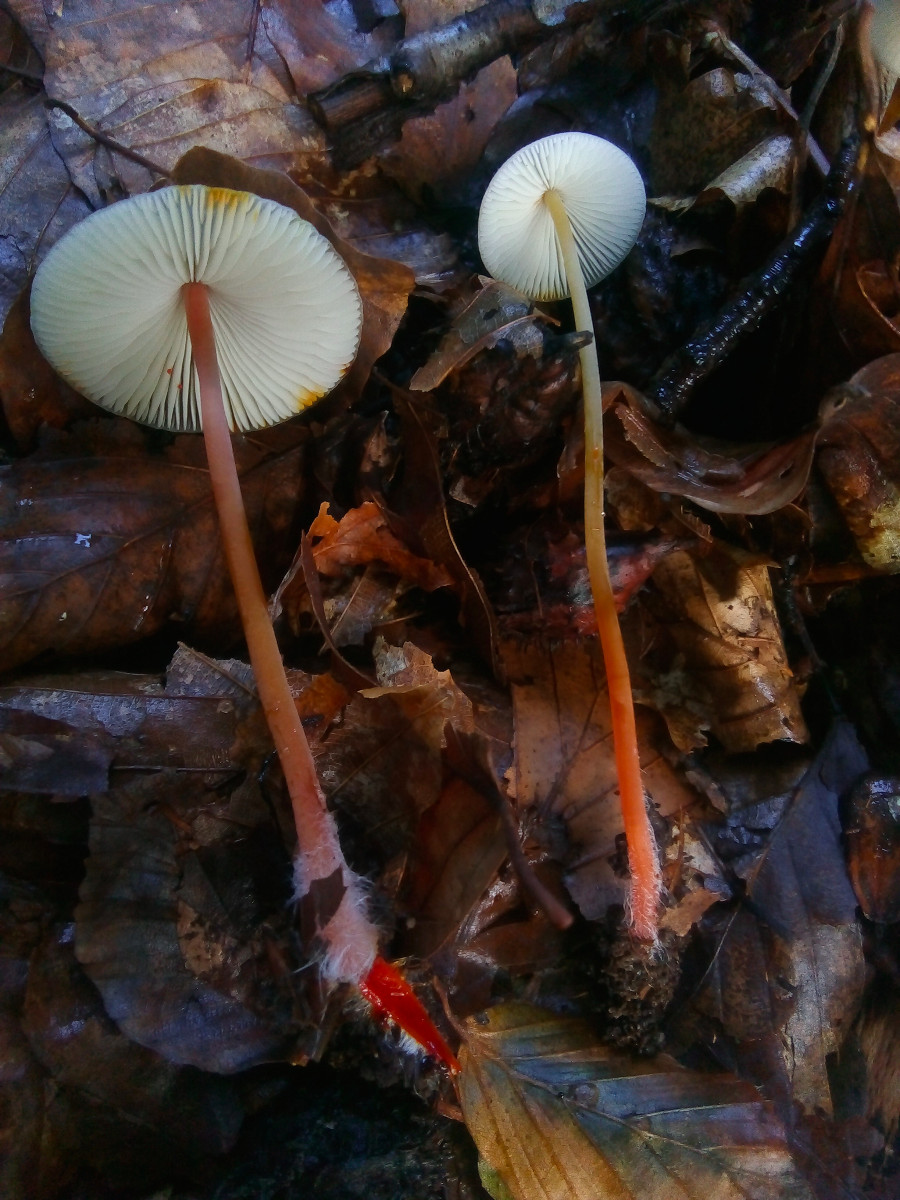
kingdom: Fungi
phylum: Basidiomycota
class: Agaricomycetes
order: Agaricales
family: Mycenaceae
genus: Mycena
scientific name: Mycena crocata
